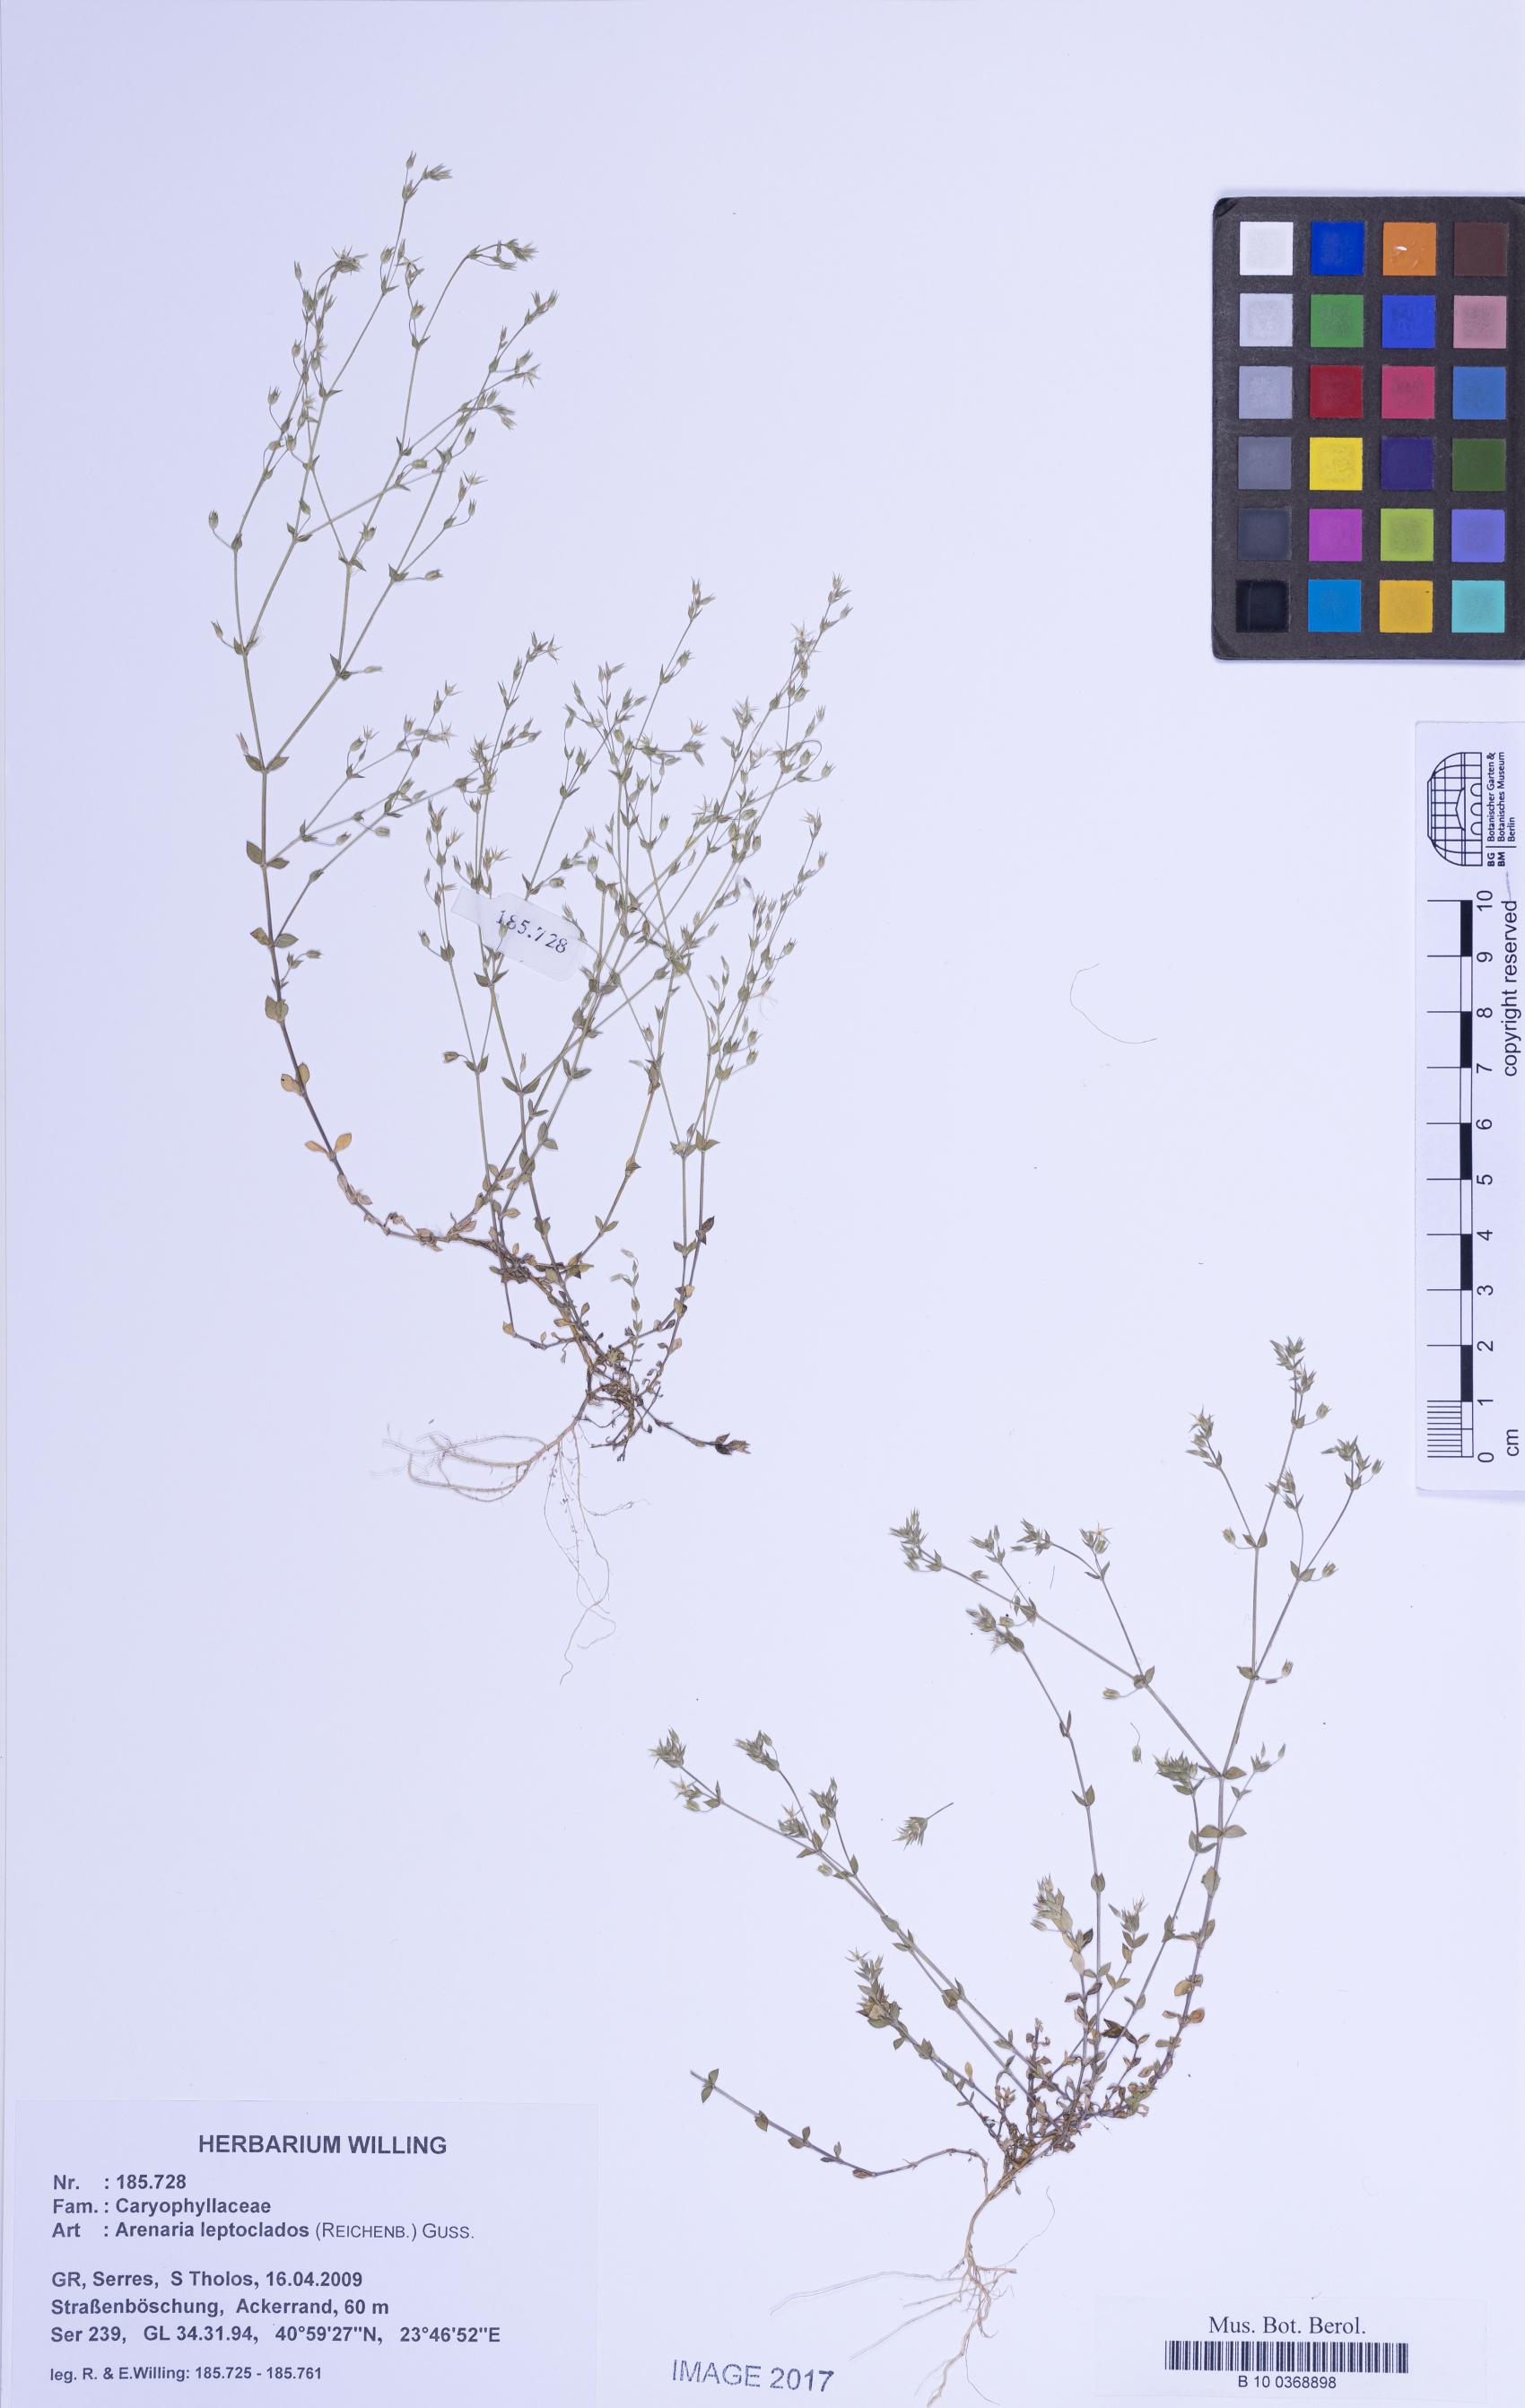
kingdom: Plantae
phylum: Tracheophyta
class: Magnoliopsida
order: Caryophyllales
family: Caryophyllaceae
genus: Arenaria
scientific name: Arenaria leptoclados
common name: Thyme-leaved sandwort
